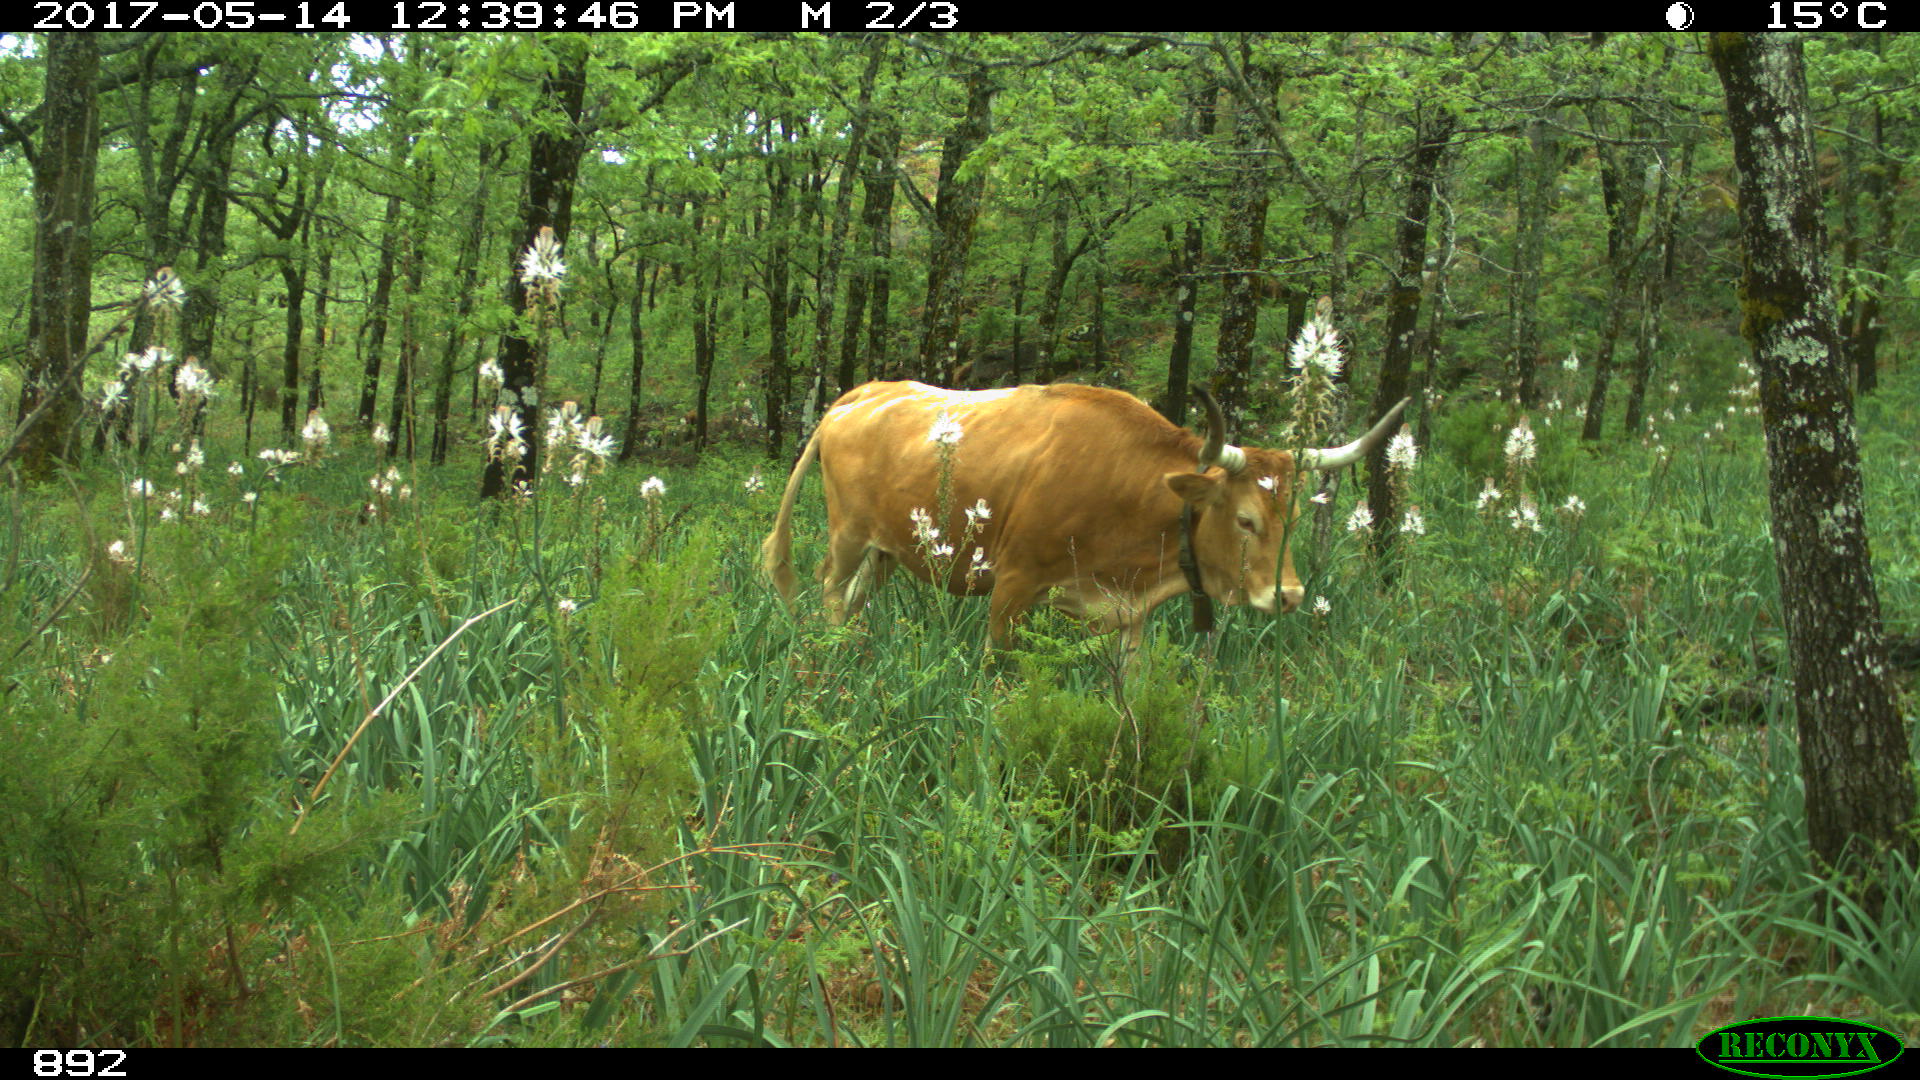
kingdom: Animalia
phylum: Chordata
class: Mammalia
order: Artiodactyla
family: Bovidae
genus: Bos
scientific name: Bos taurus
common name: Domesticated cattle
